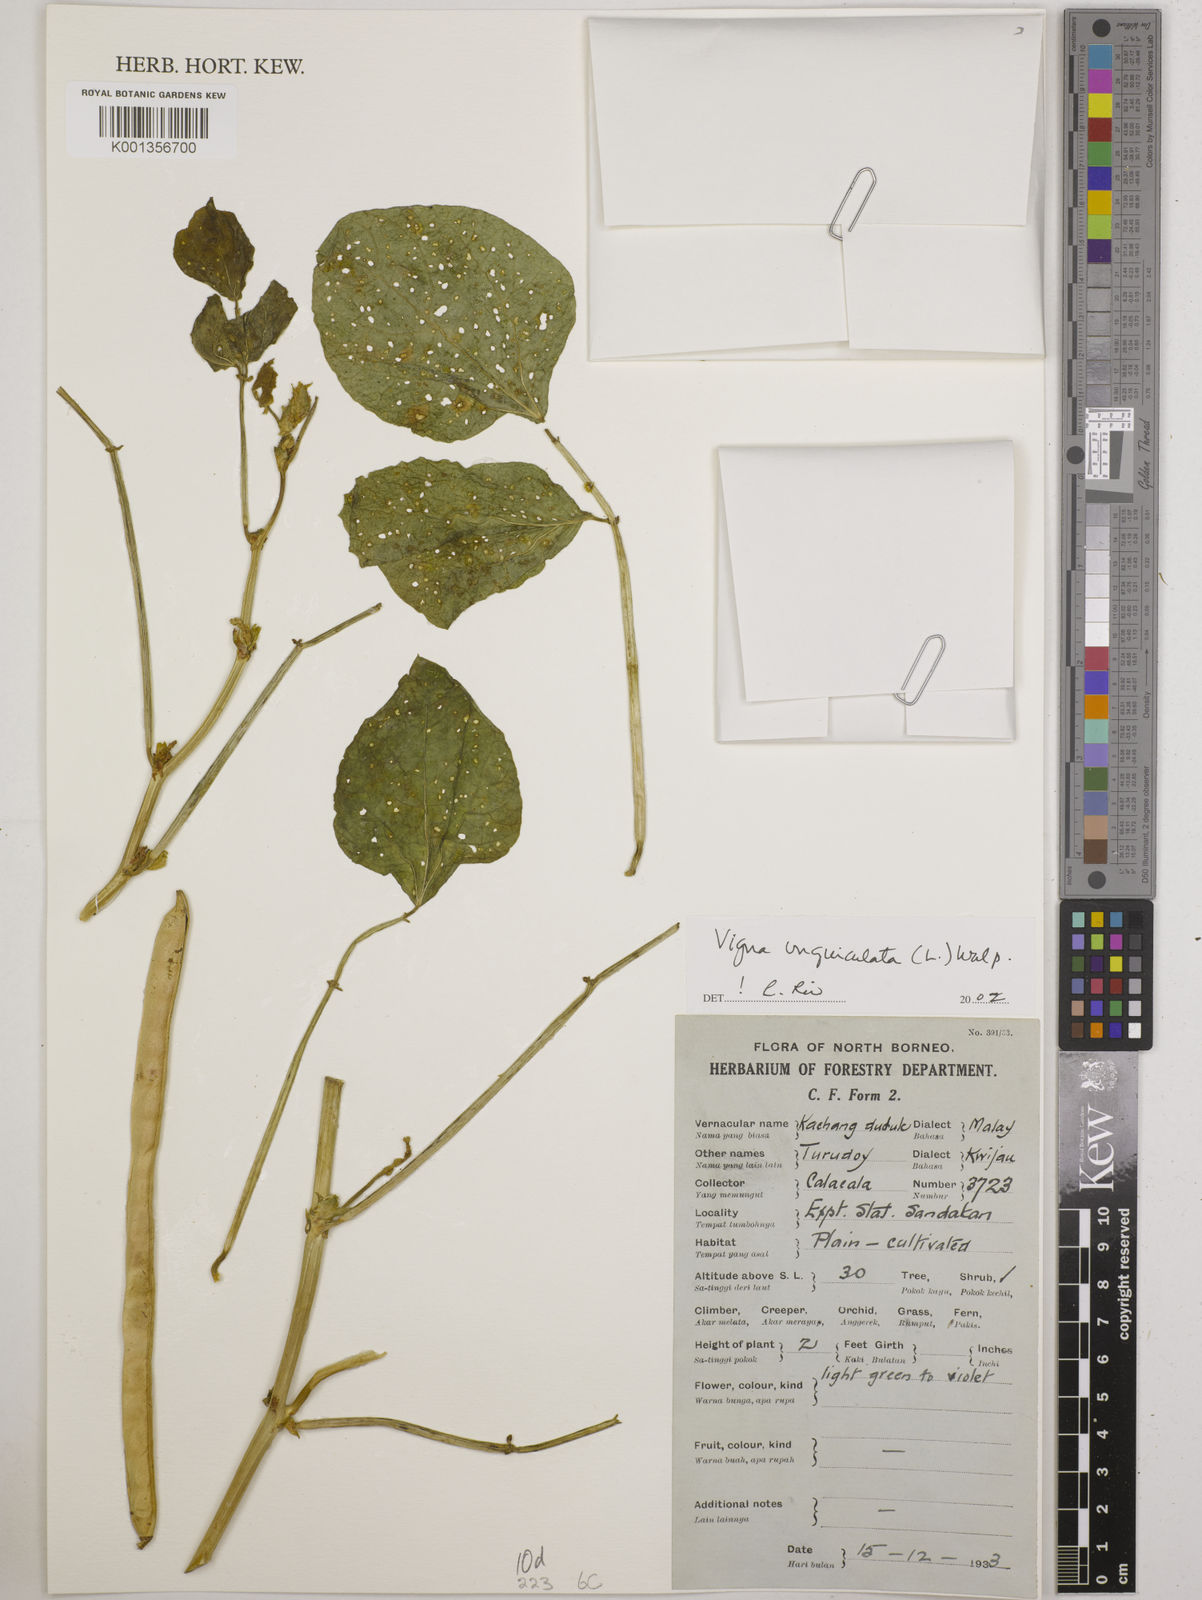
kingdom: Plantae
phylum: Tracheophyta
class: Magnoliopsida
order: Fabales
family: Fabaceae
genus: Vigna
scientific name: Vigna unguiculata
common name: Cowpea
